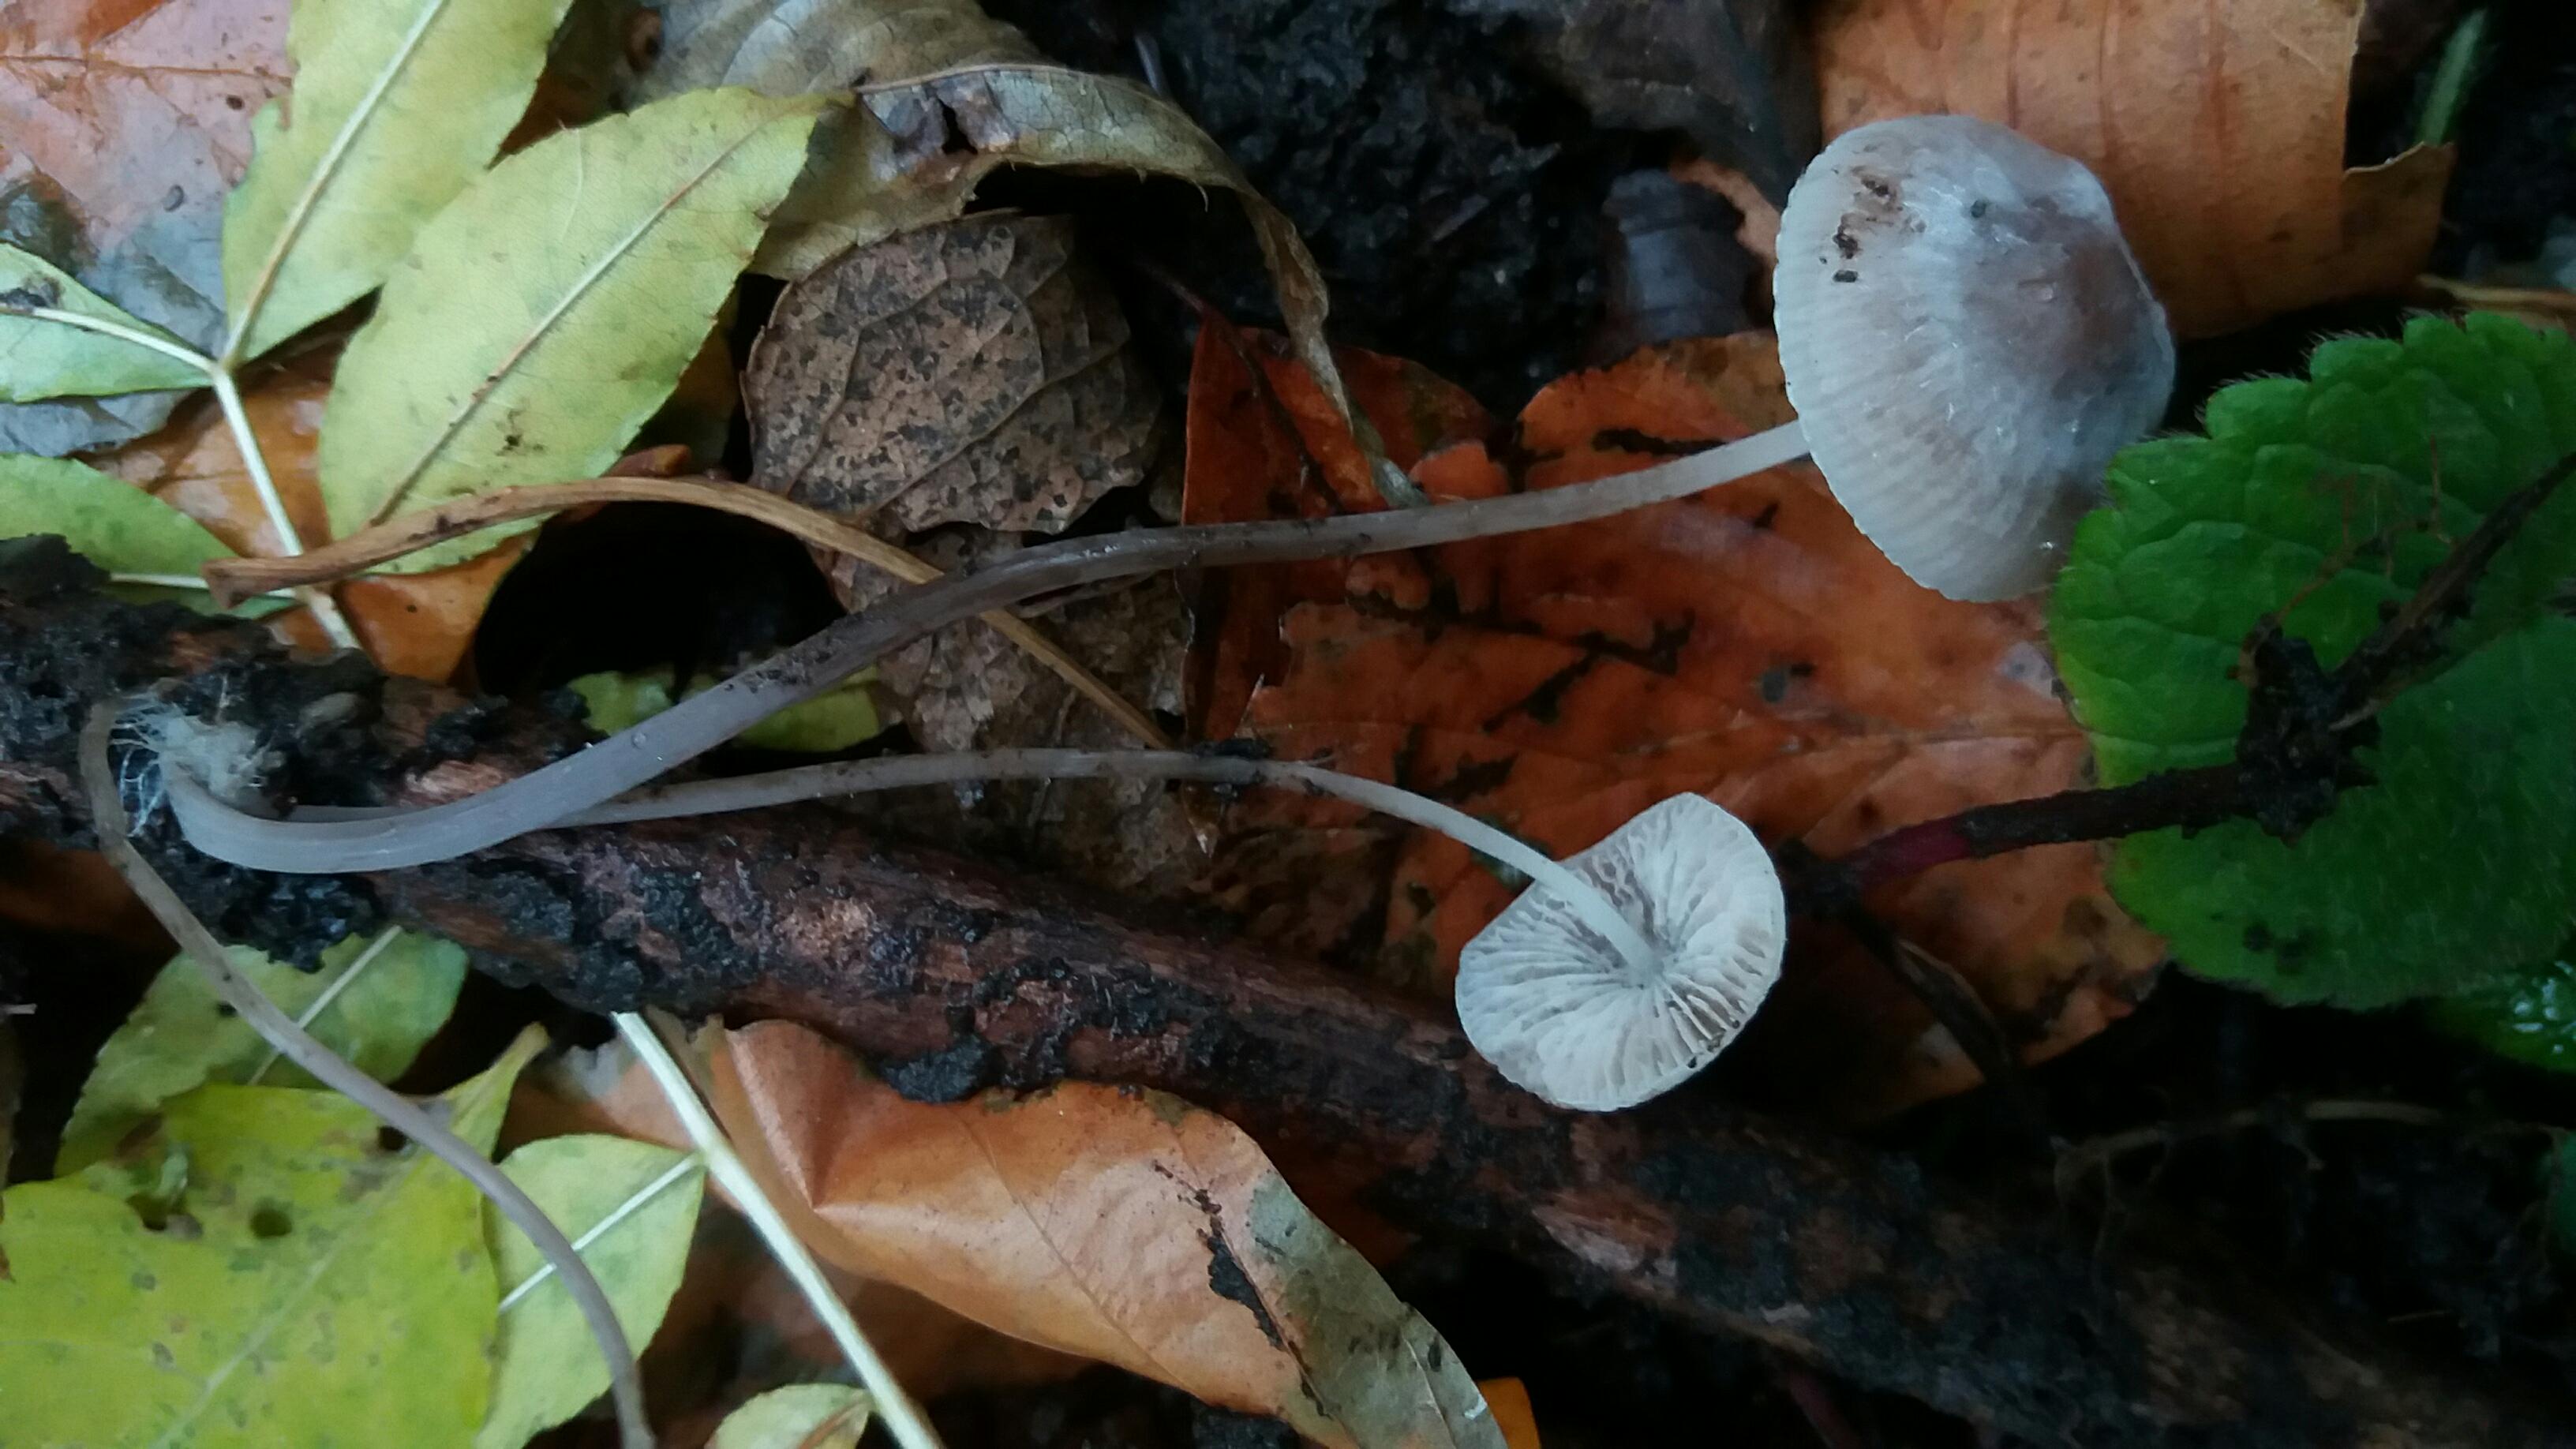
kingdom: Fungi
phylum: Basidiomycota
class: Agaricomycetes
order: Agaricales
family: Mycenaceae
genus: Mycena
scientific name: Mycena polygramma
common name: mangestribet huesvamp
